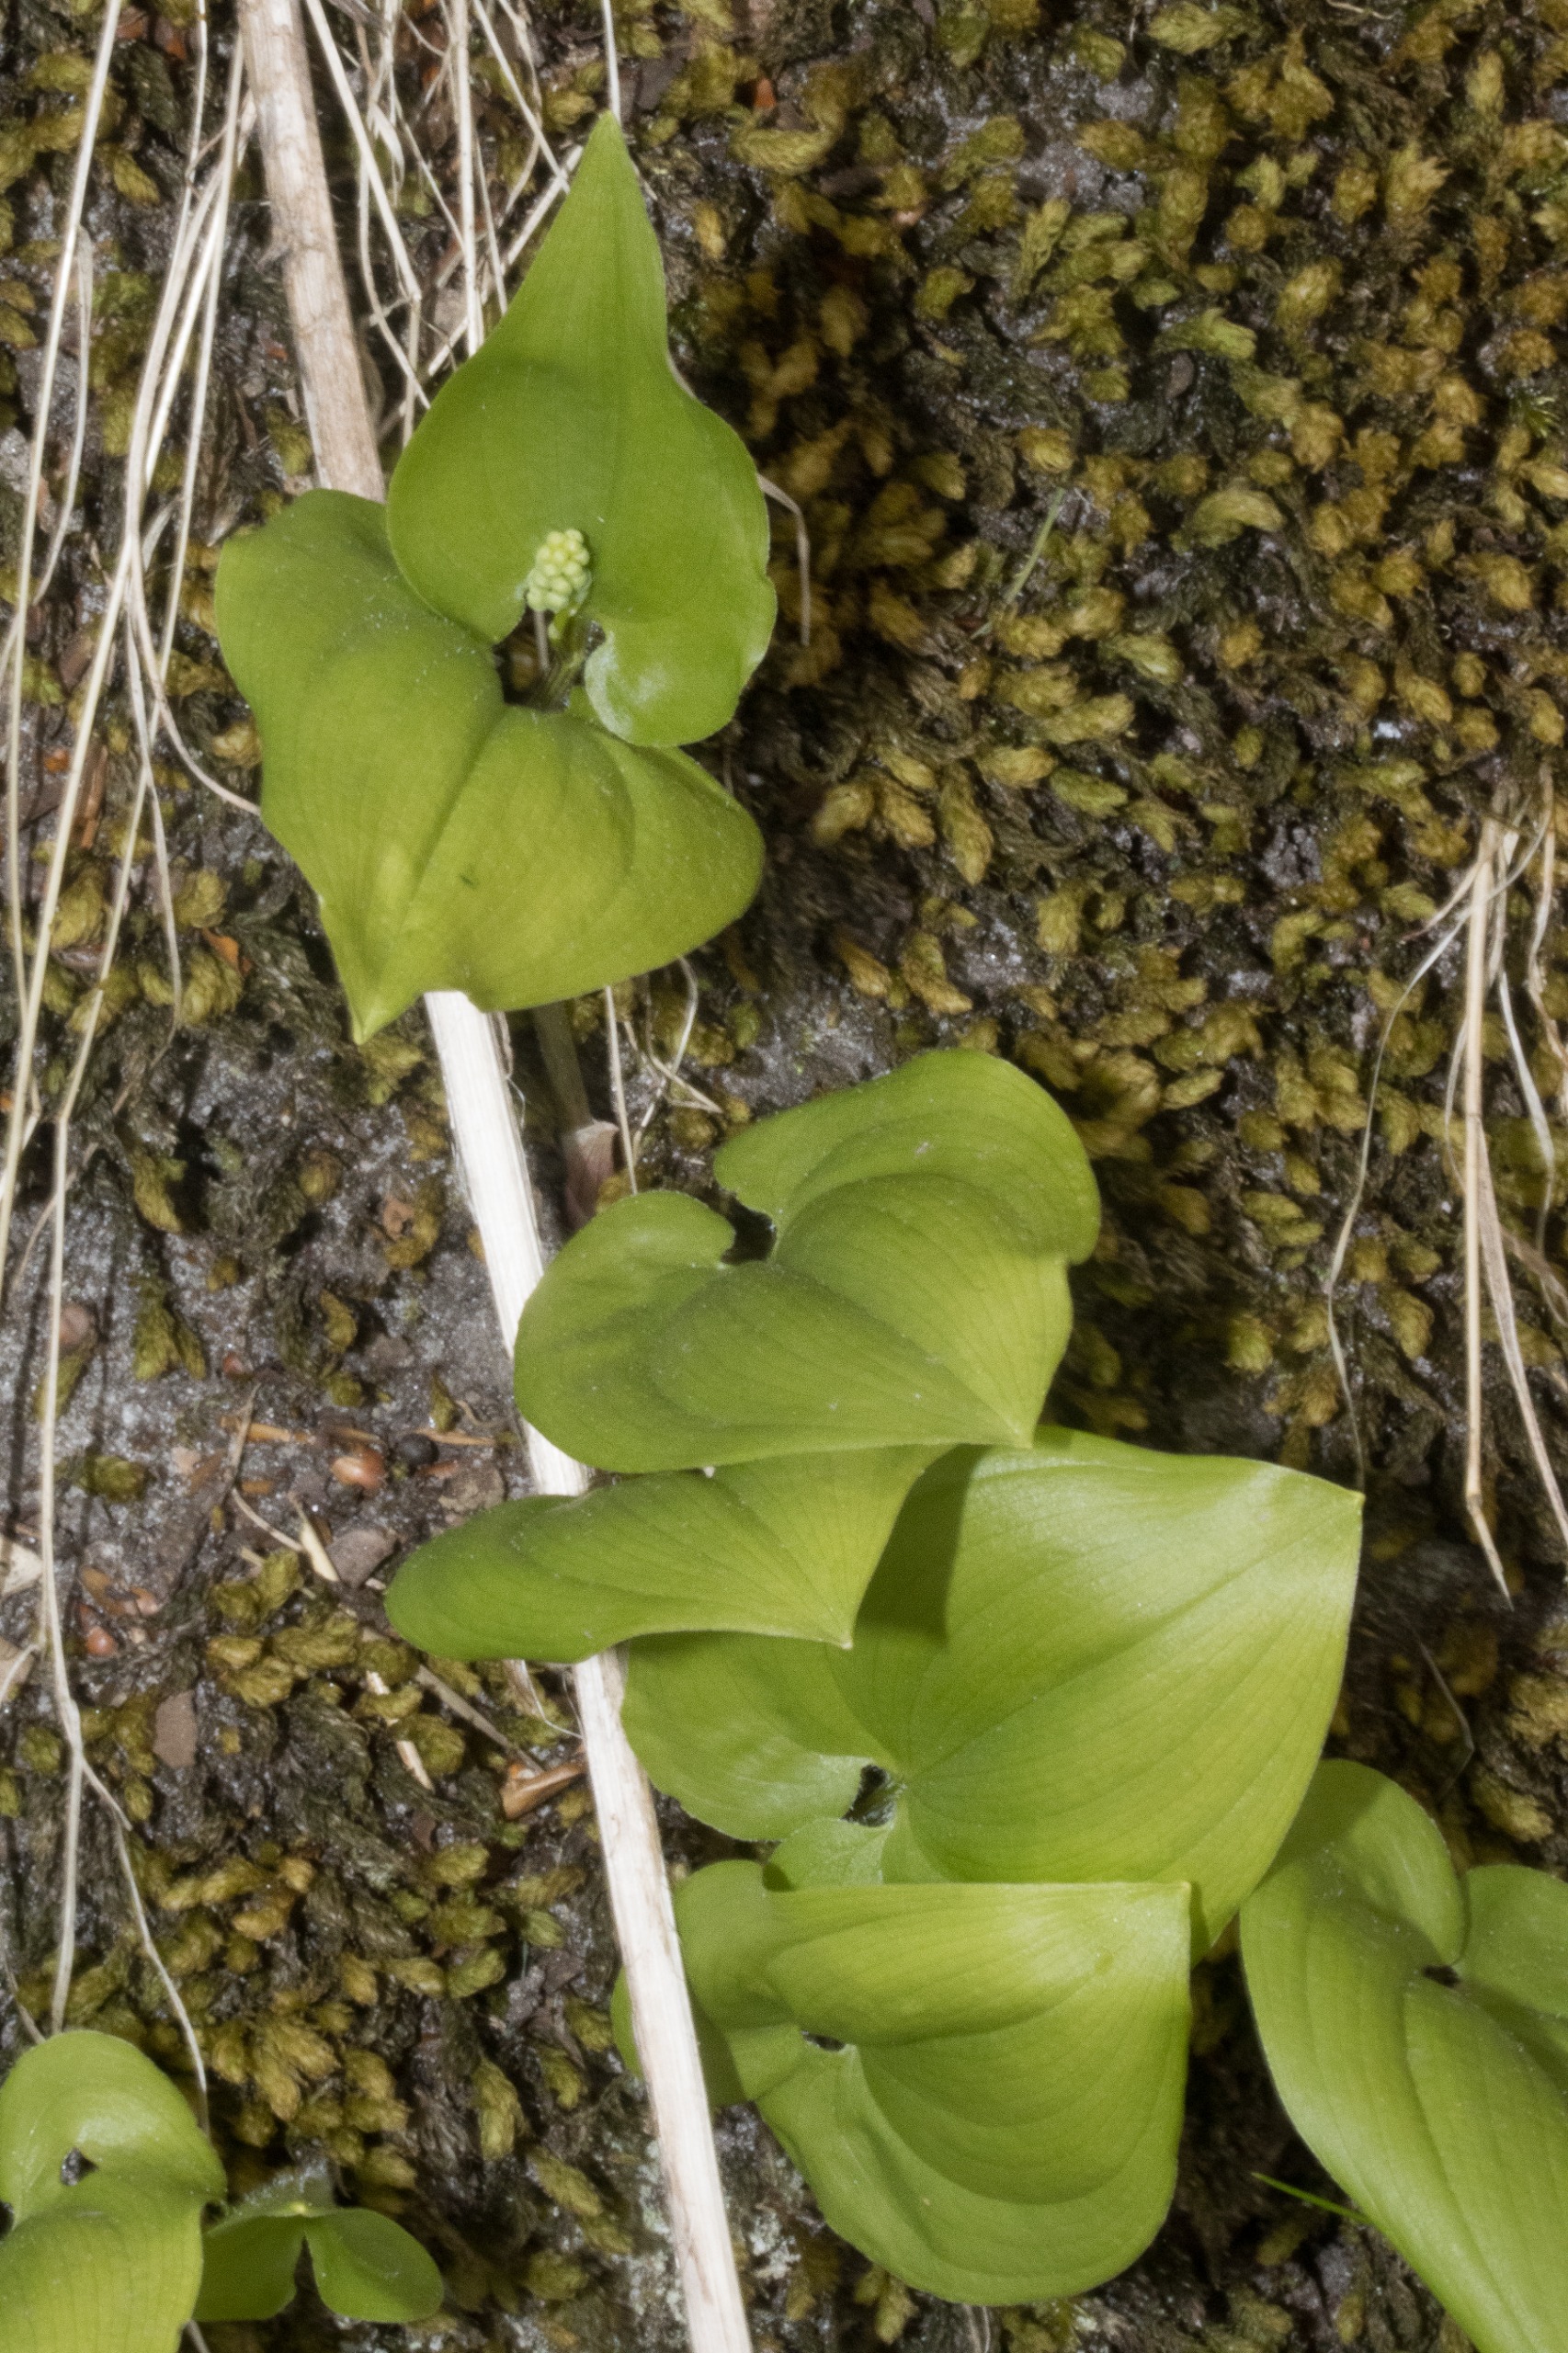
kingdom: Plantae
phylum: Tracheophyta
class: Liliopsida
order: Asparagales
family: Asparagaceae
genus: Maianthemum
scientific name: Maianthemum bifolium
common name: Majblomst
